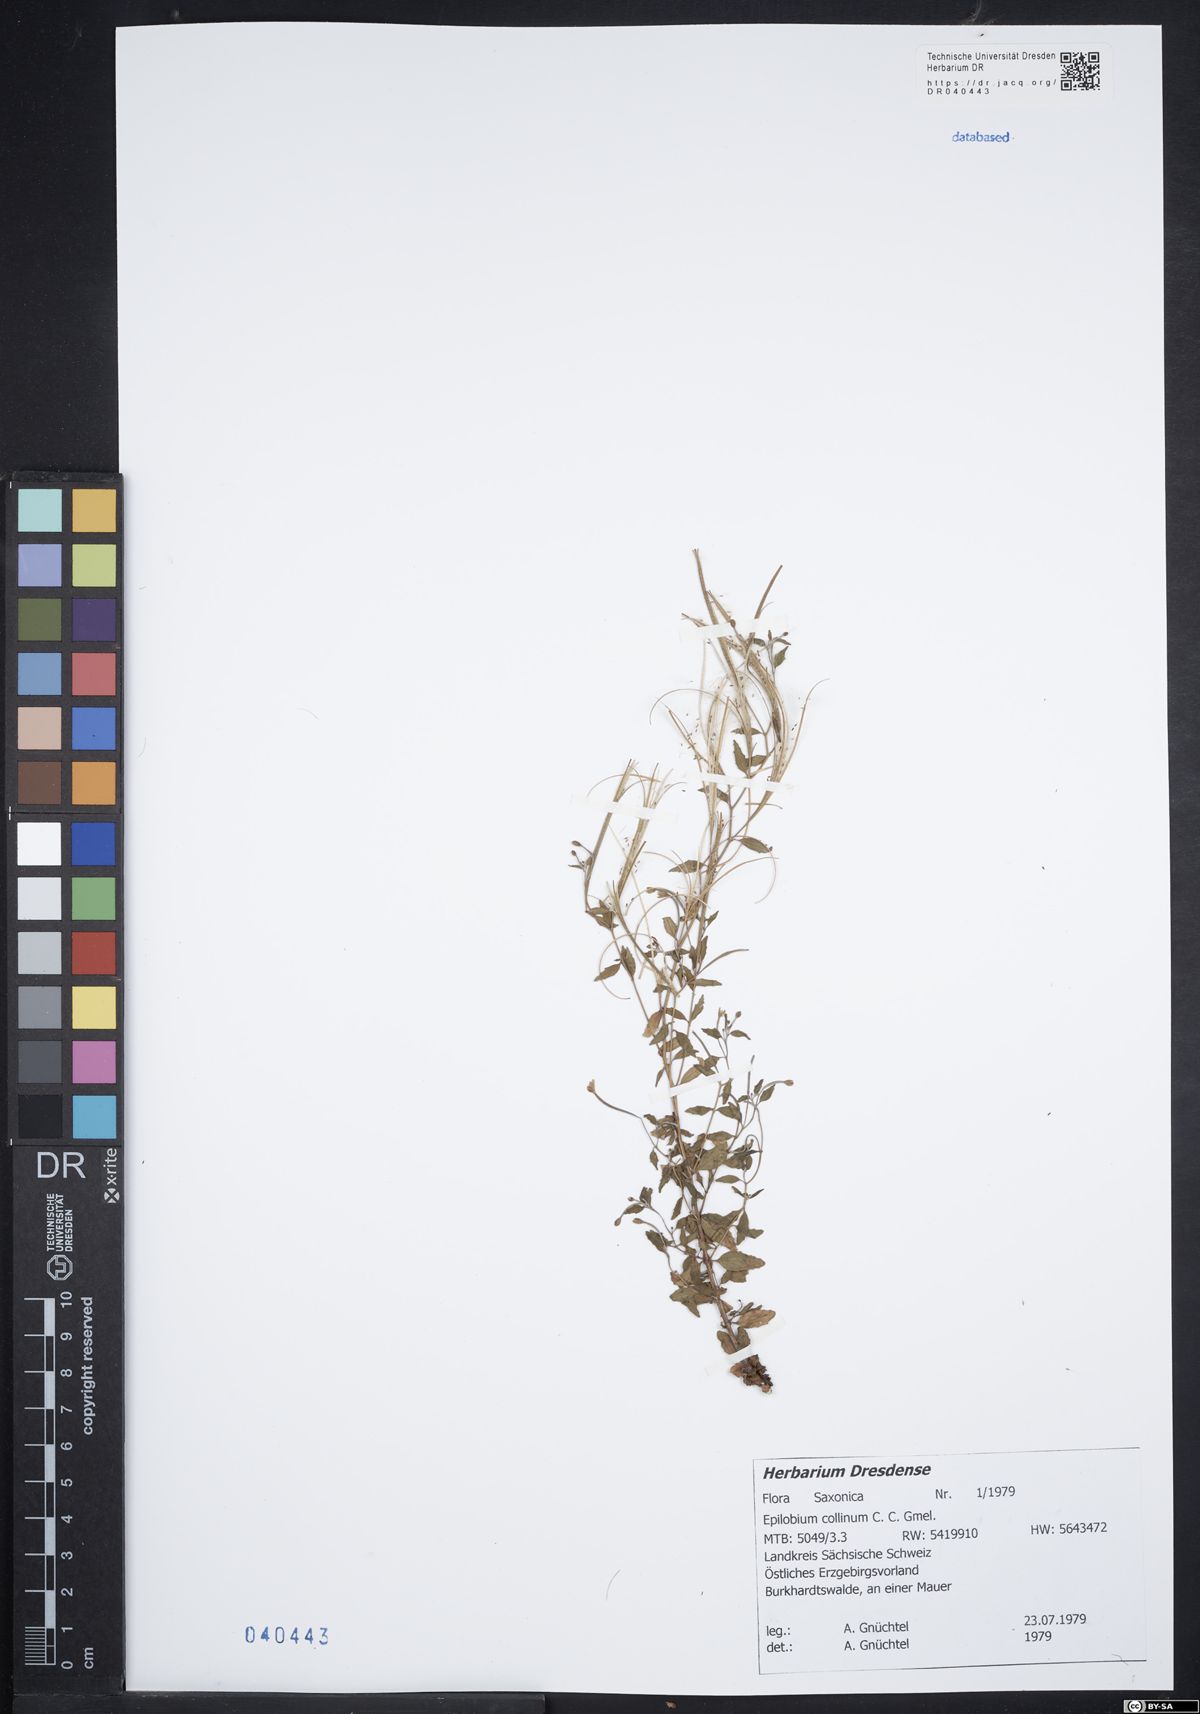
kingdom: Plantae
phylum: Tracheophyta
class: Magnoliopsida
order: Myrtales
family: Onagraceae
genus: Epilobium
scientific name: Epilobium collinum
